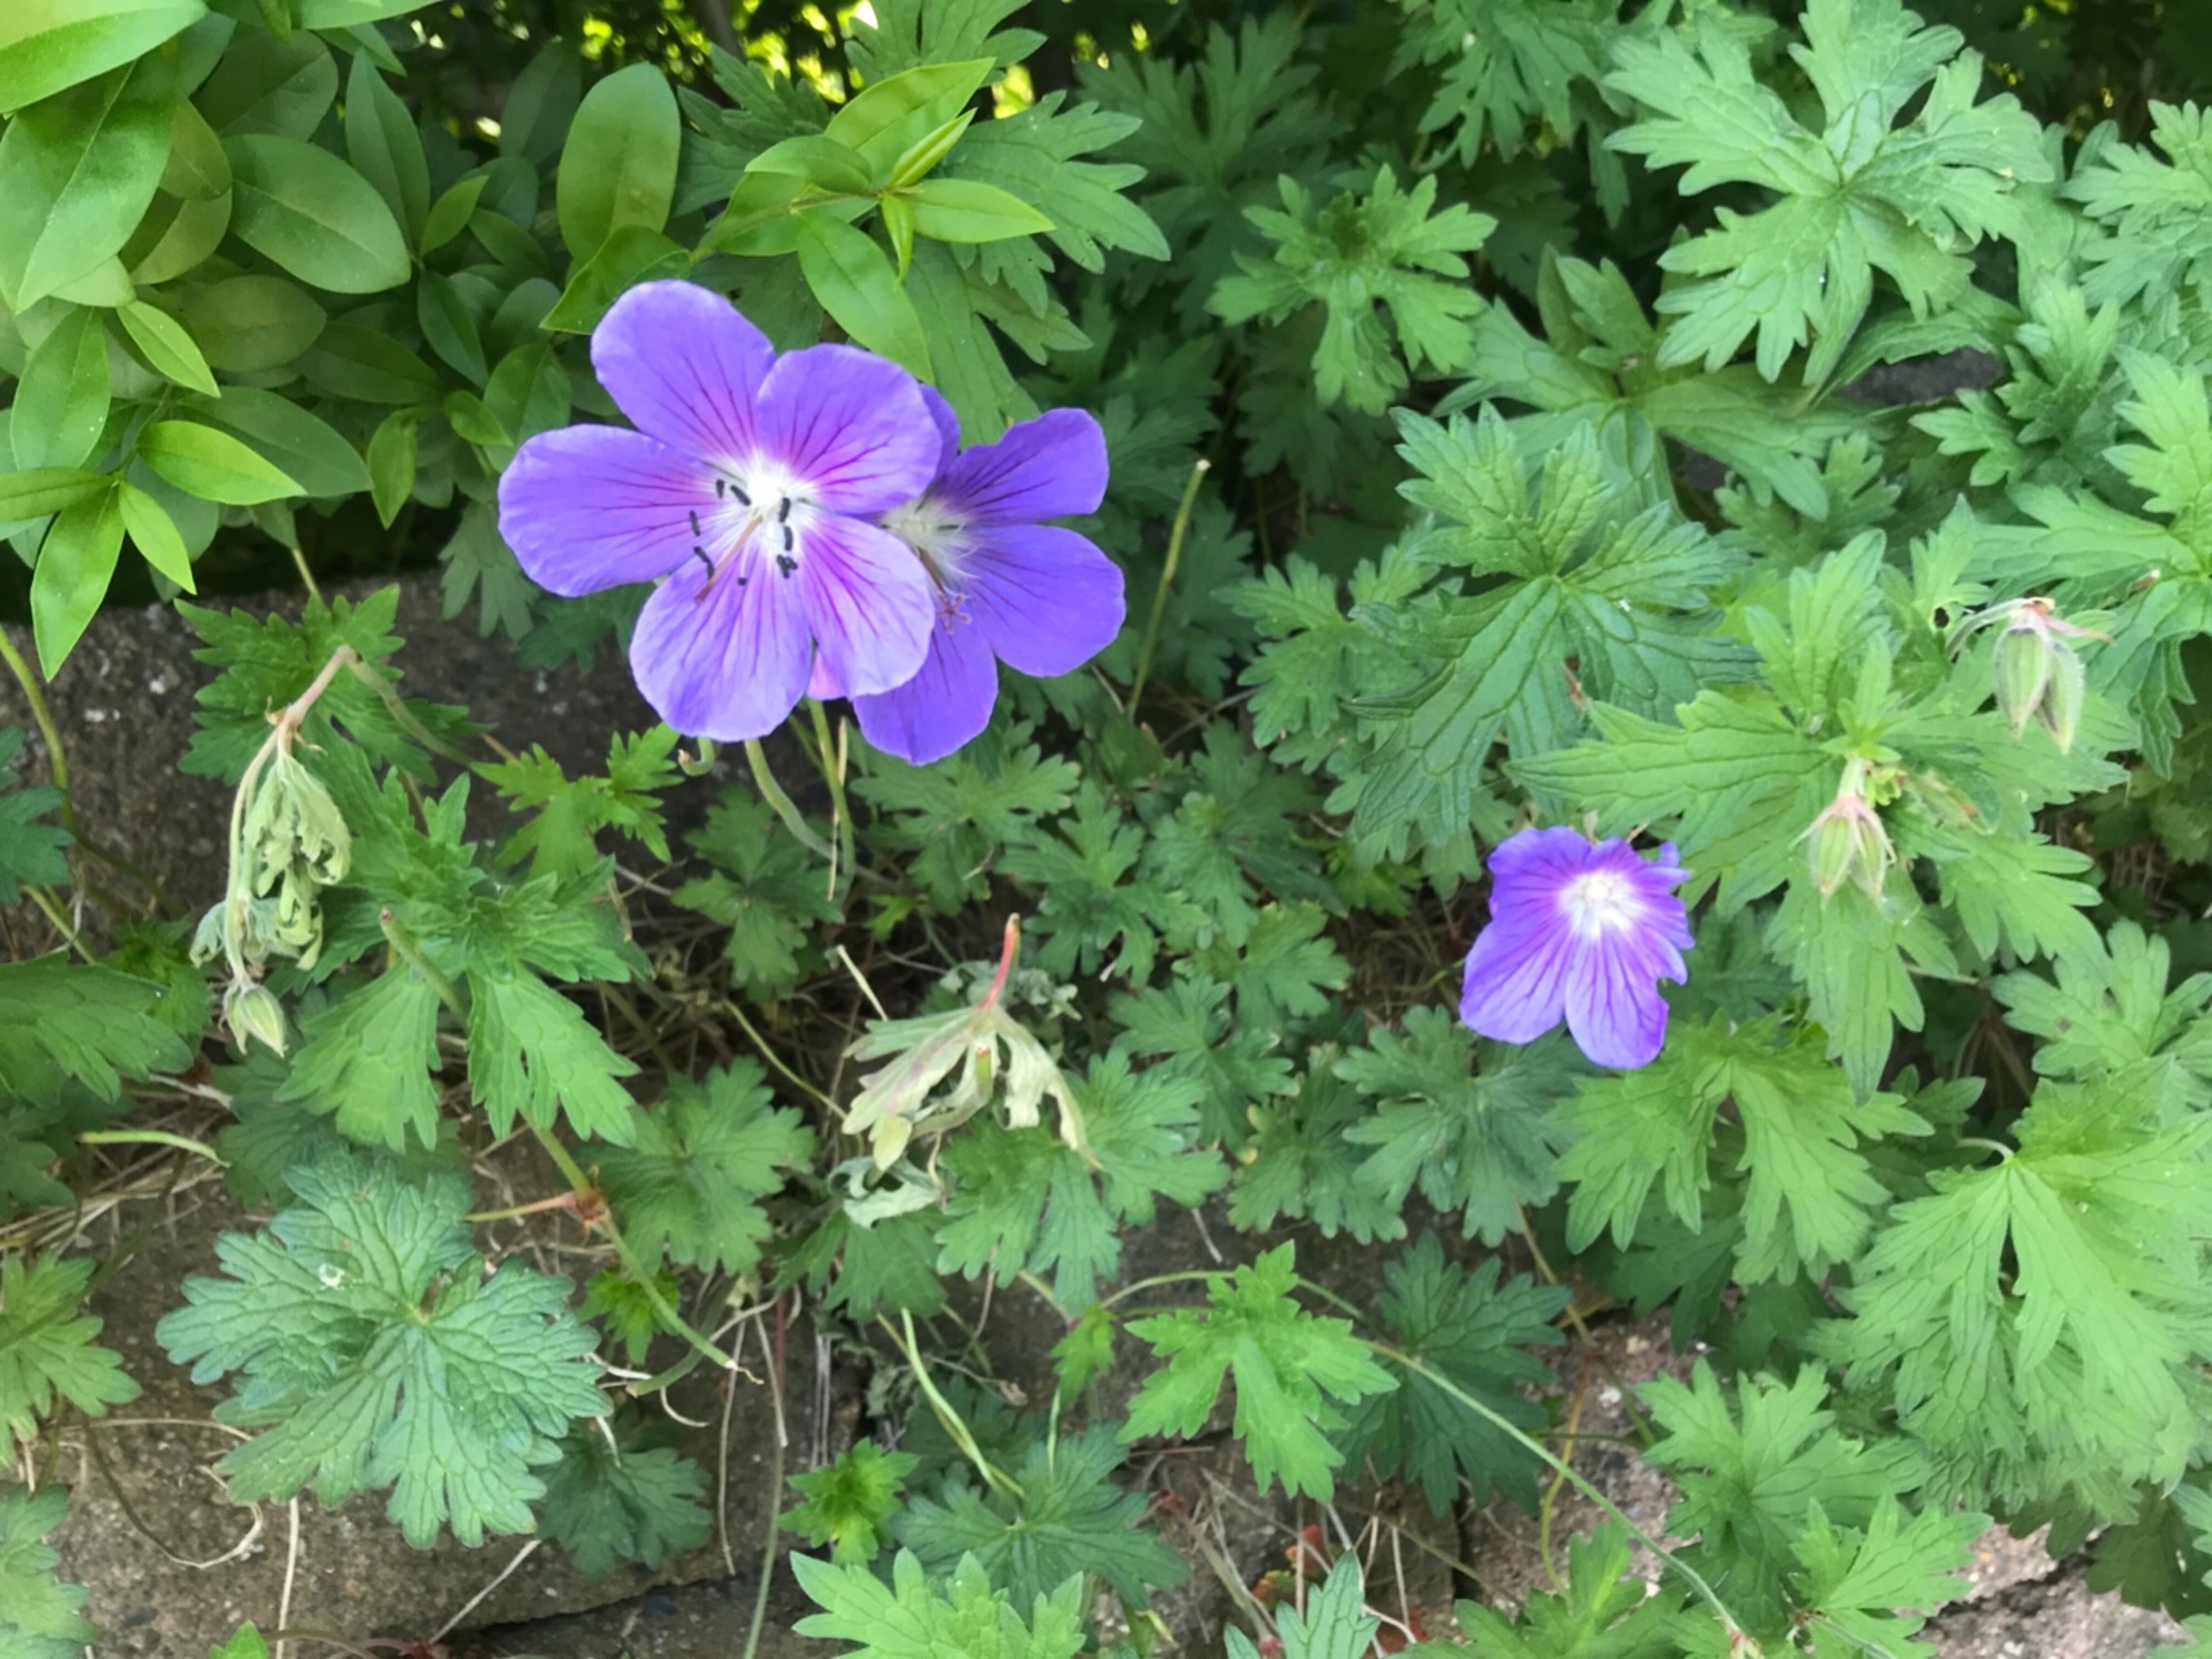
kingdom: Plantae
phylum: Tracheophyta
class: Magnoliopsida
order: Geraniales
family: Geraniaceae
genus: Geranium
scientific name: Geranium pratense
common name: Eng-storkenæb
